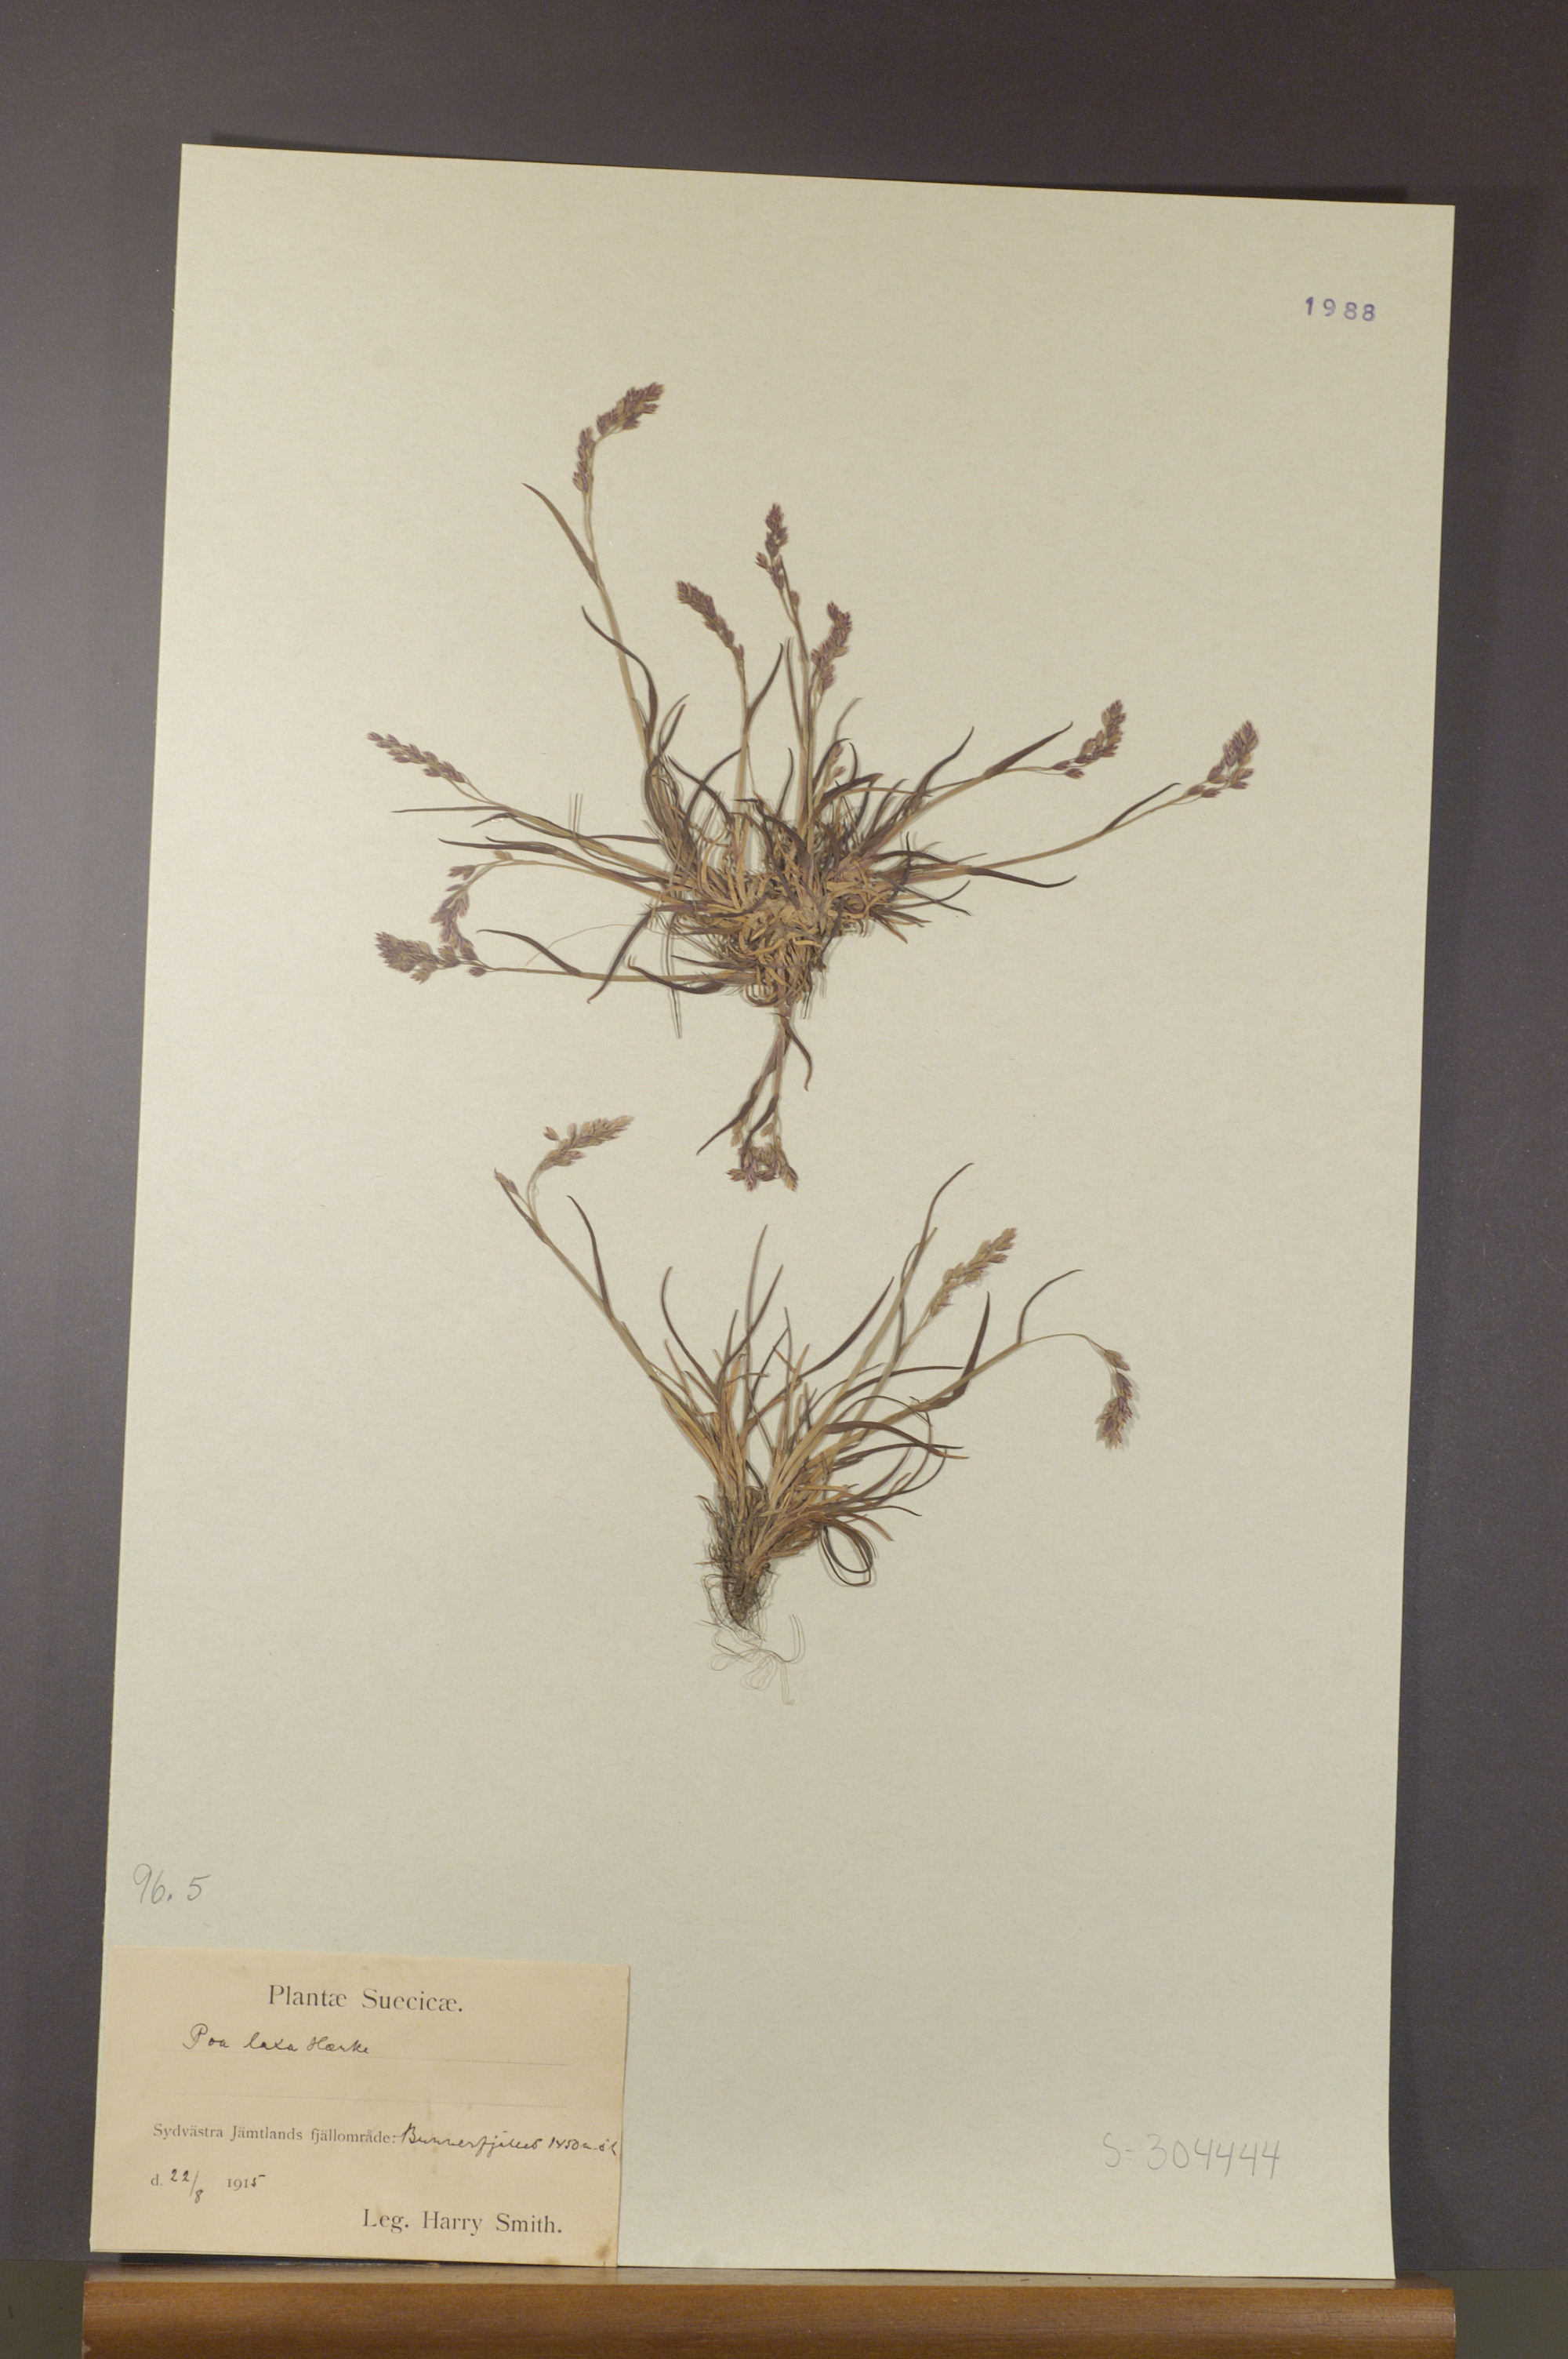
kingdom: Plantae
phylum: Tracheophyta
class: Liliopsida
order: Poales
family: Poaceae
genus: Poa
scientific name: Poa flexuosa
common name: Wavy meadow-grass
